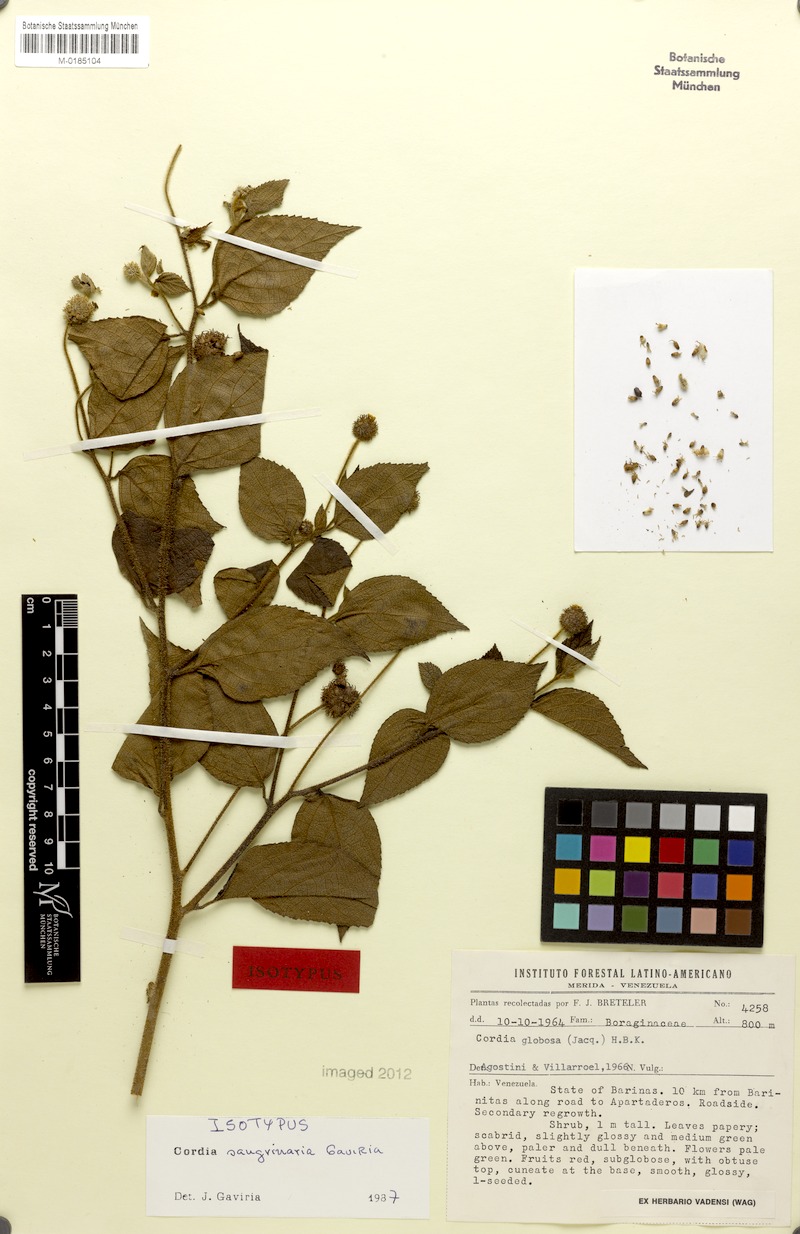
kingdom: Plantae
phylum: Tracheophyta
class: Magnoliopsida
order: Boraginales
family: Cordiaceae
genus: Varronia
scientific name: Varronia sangrinaria
